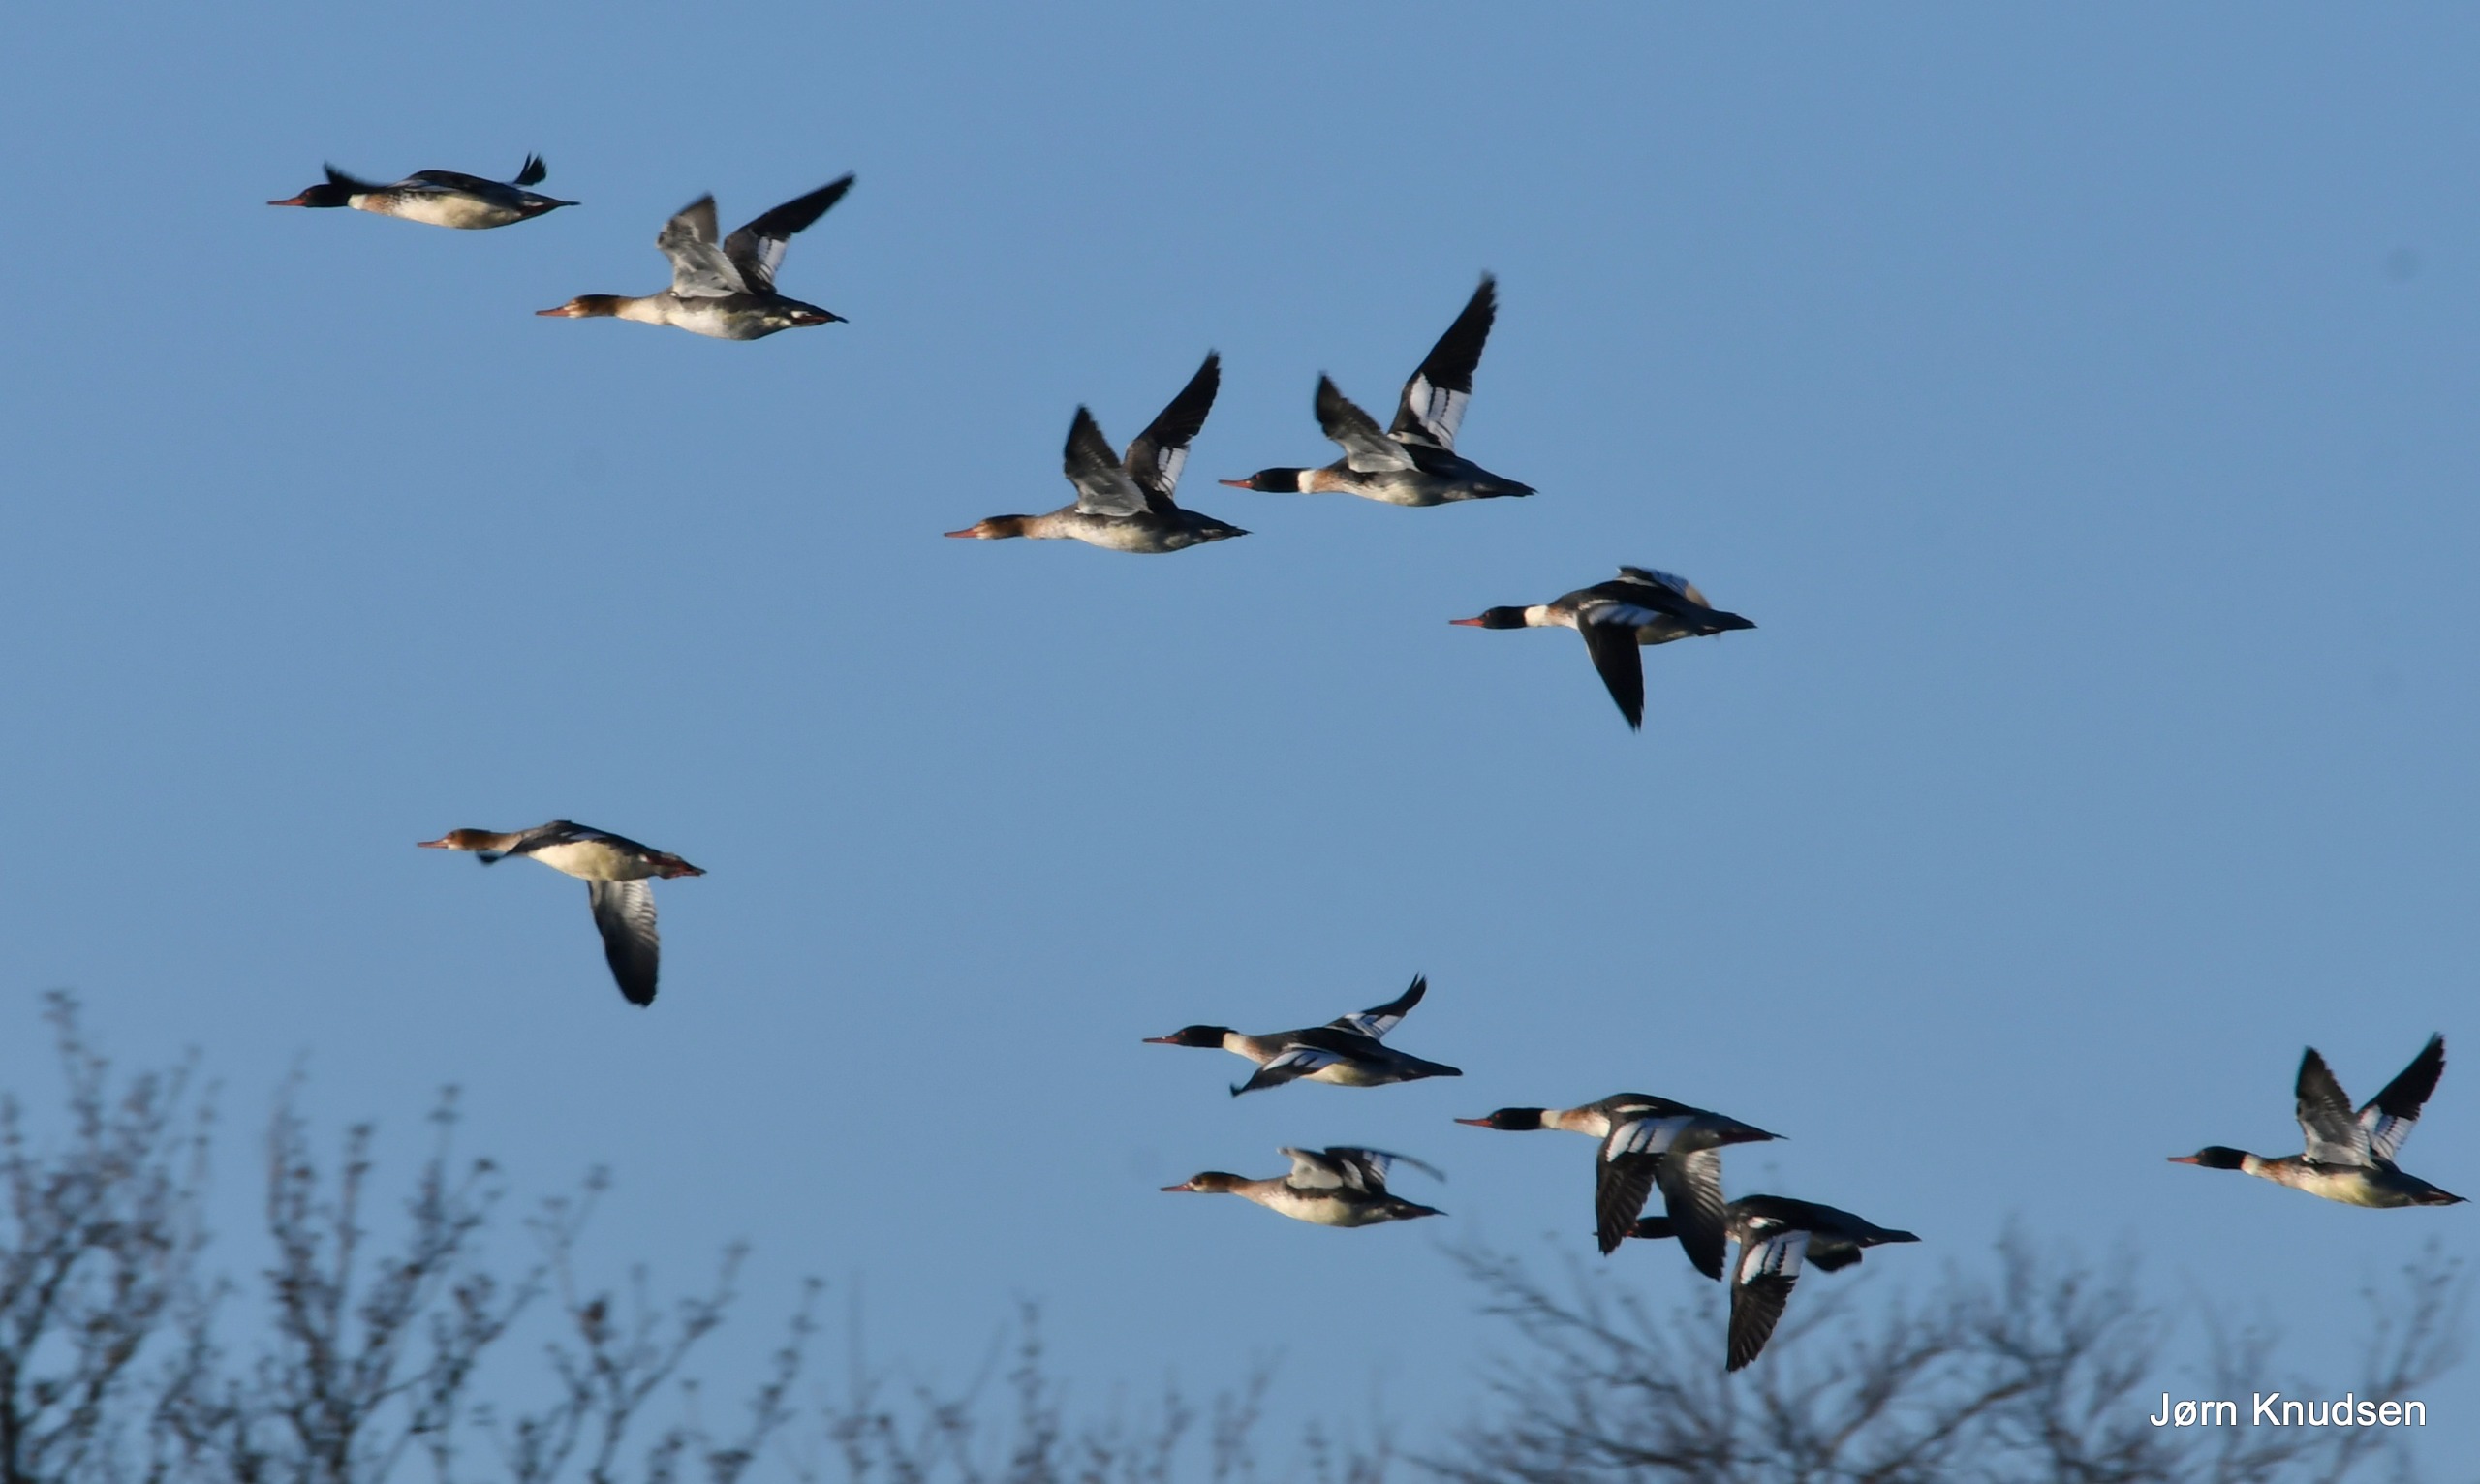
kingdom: Animalia
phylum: Chordata
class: Aves
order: Anseriformes
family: Anatidae
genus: Mergus
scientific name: Mergus serrator
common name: Toppet skallesluger
